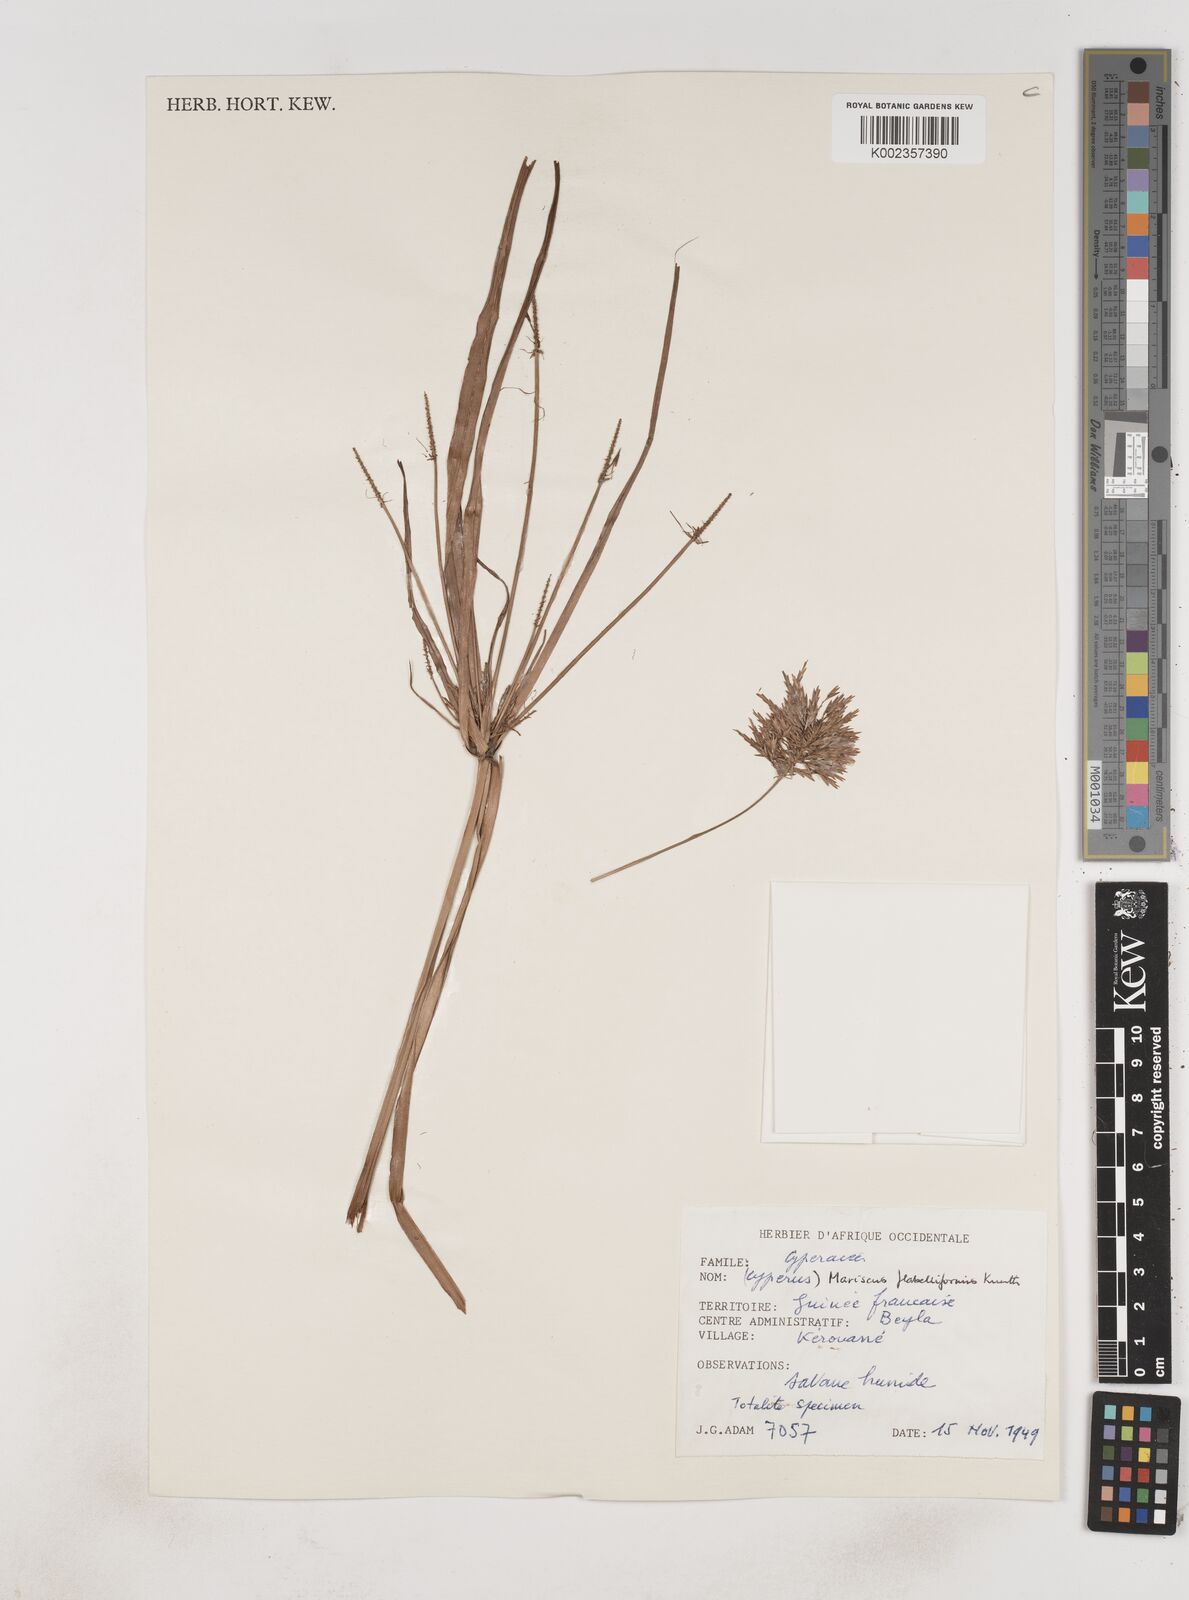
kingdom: Plantae
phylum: Tracheophyta
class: Liliopsida
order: Poales
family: Cyperaceae
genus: Cyperus
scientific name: Cyperus tenuis
